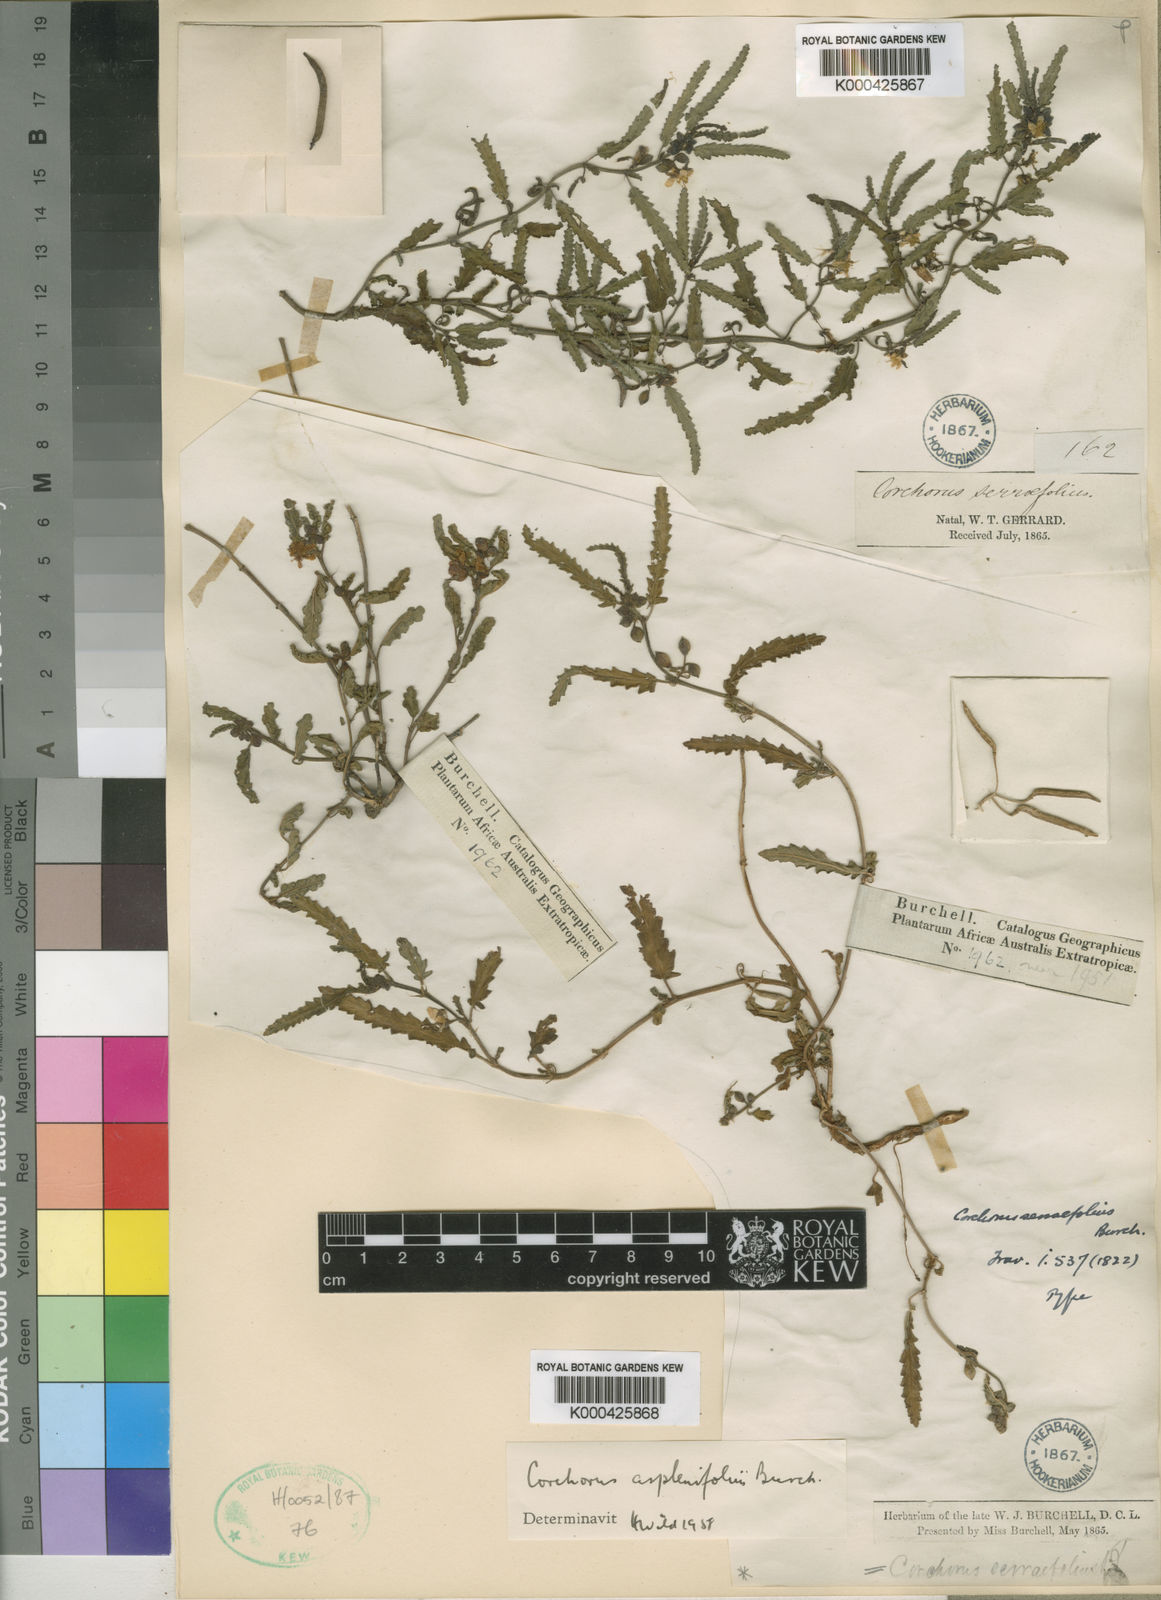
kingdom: Plantae
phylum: Tracheophyta
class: Magnoliopsida
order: Malvales
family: Malvaceae
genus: Corchorus
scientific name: Corchorus asplenifolius
